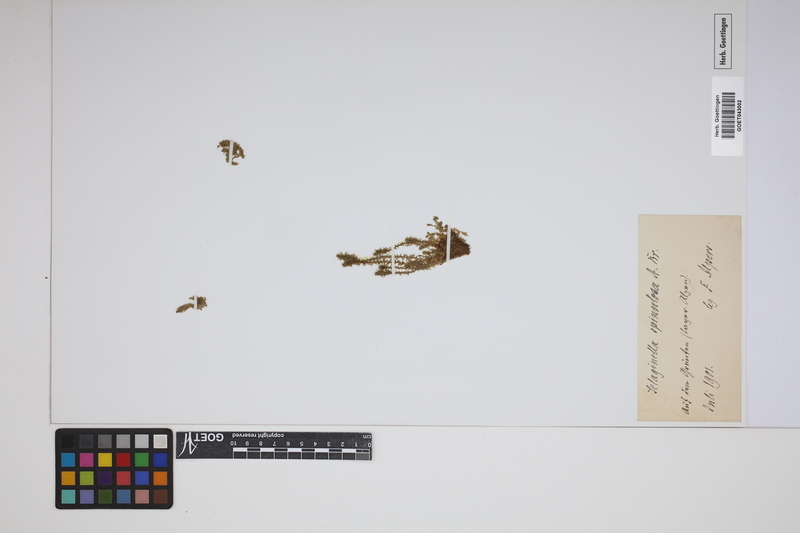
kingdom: Plantae
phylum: Tracheophyta
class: Lycopodiopsida
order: Selaginellales
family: Selaginellaceae
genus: Selaginella
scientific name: Selaginella selaginoides
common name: Prickly mountain-moss
